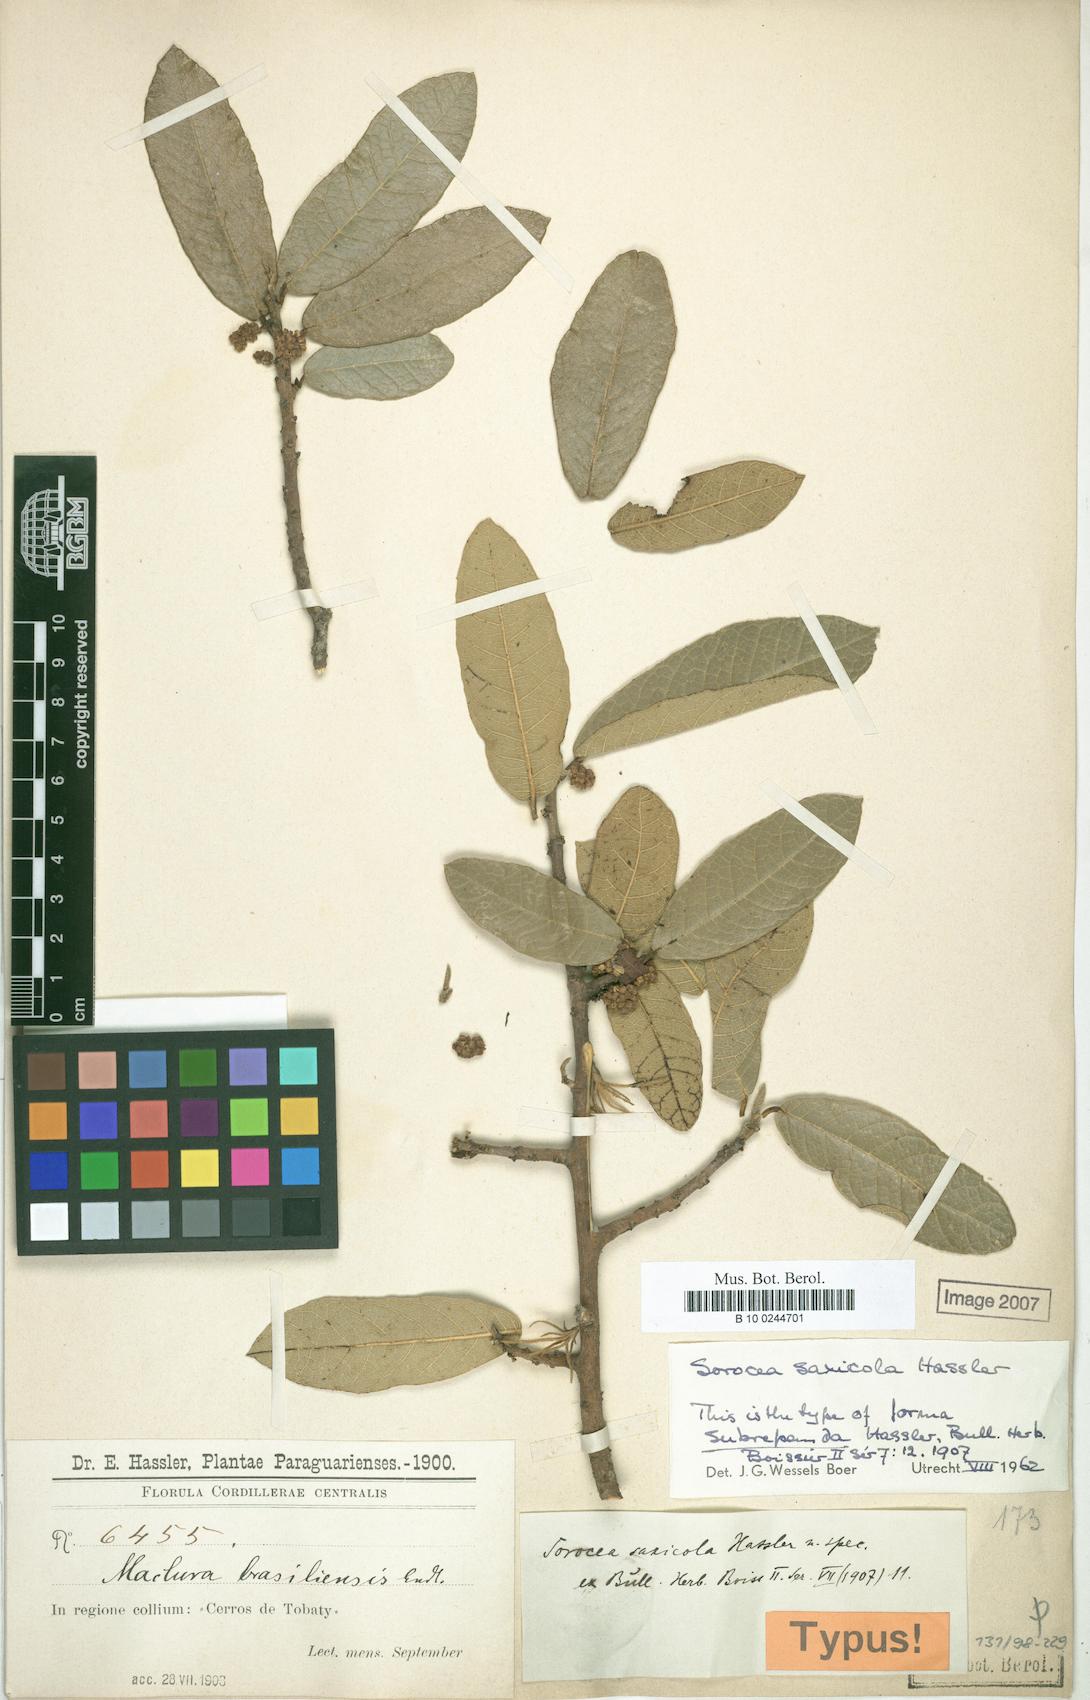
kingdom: Plantae
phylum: Tracheophyta
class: Magnoliopsida
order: Rosales
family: Moraceae
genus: Sorocea
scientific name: Sorocea sprucei
